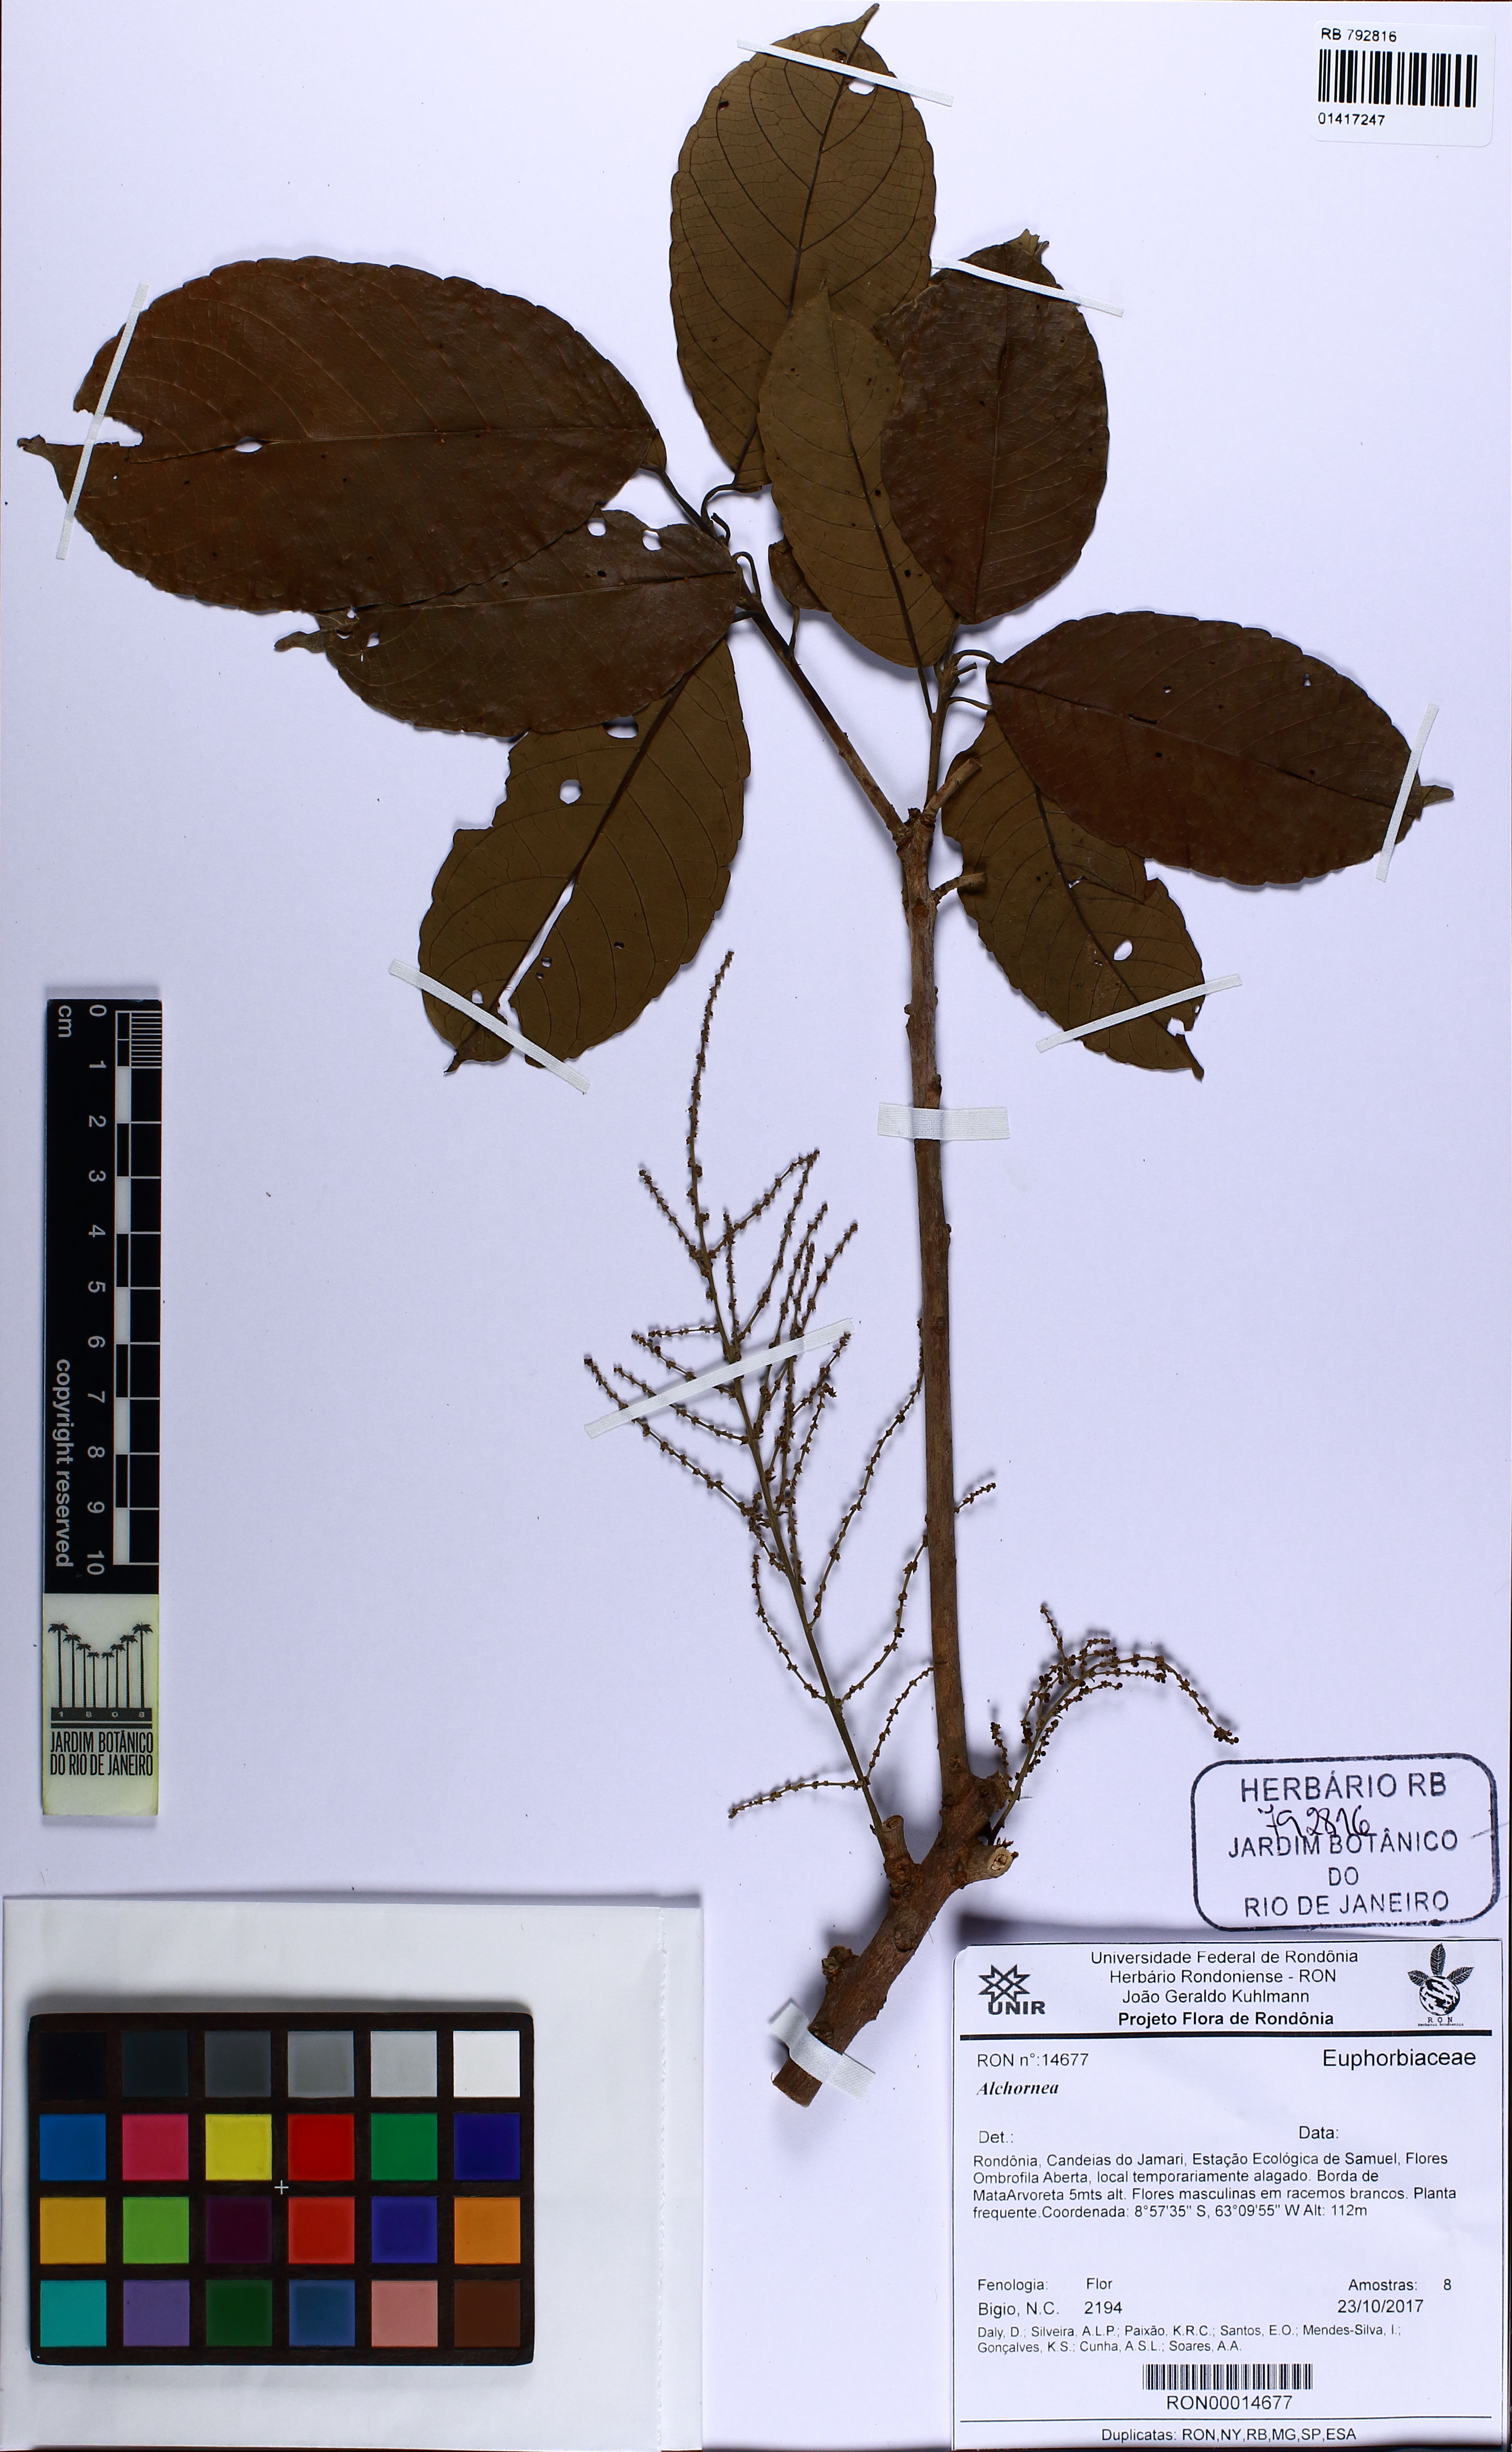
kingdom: Plantae
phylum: Tracheophyta
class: Magnoliopsida
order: Malpighiales
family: Euphorbiaceae
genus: Alchornea
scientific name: Alchornea
